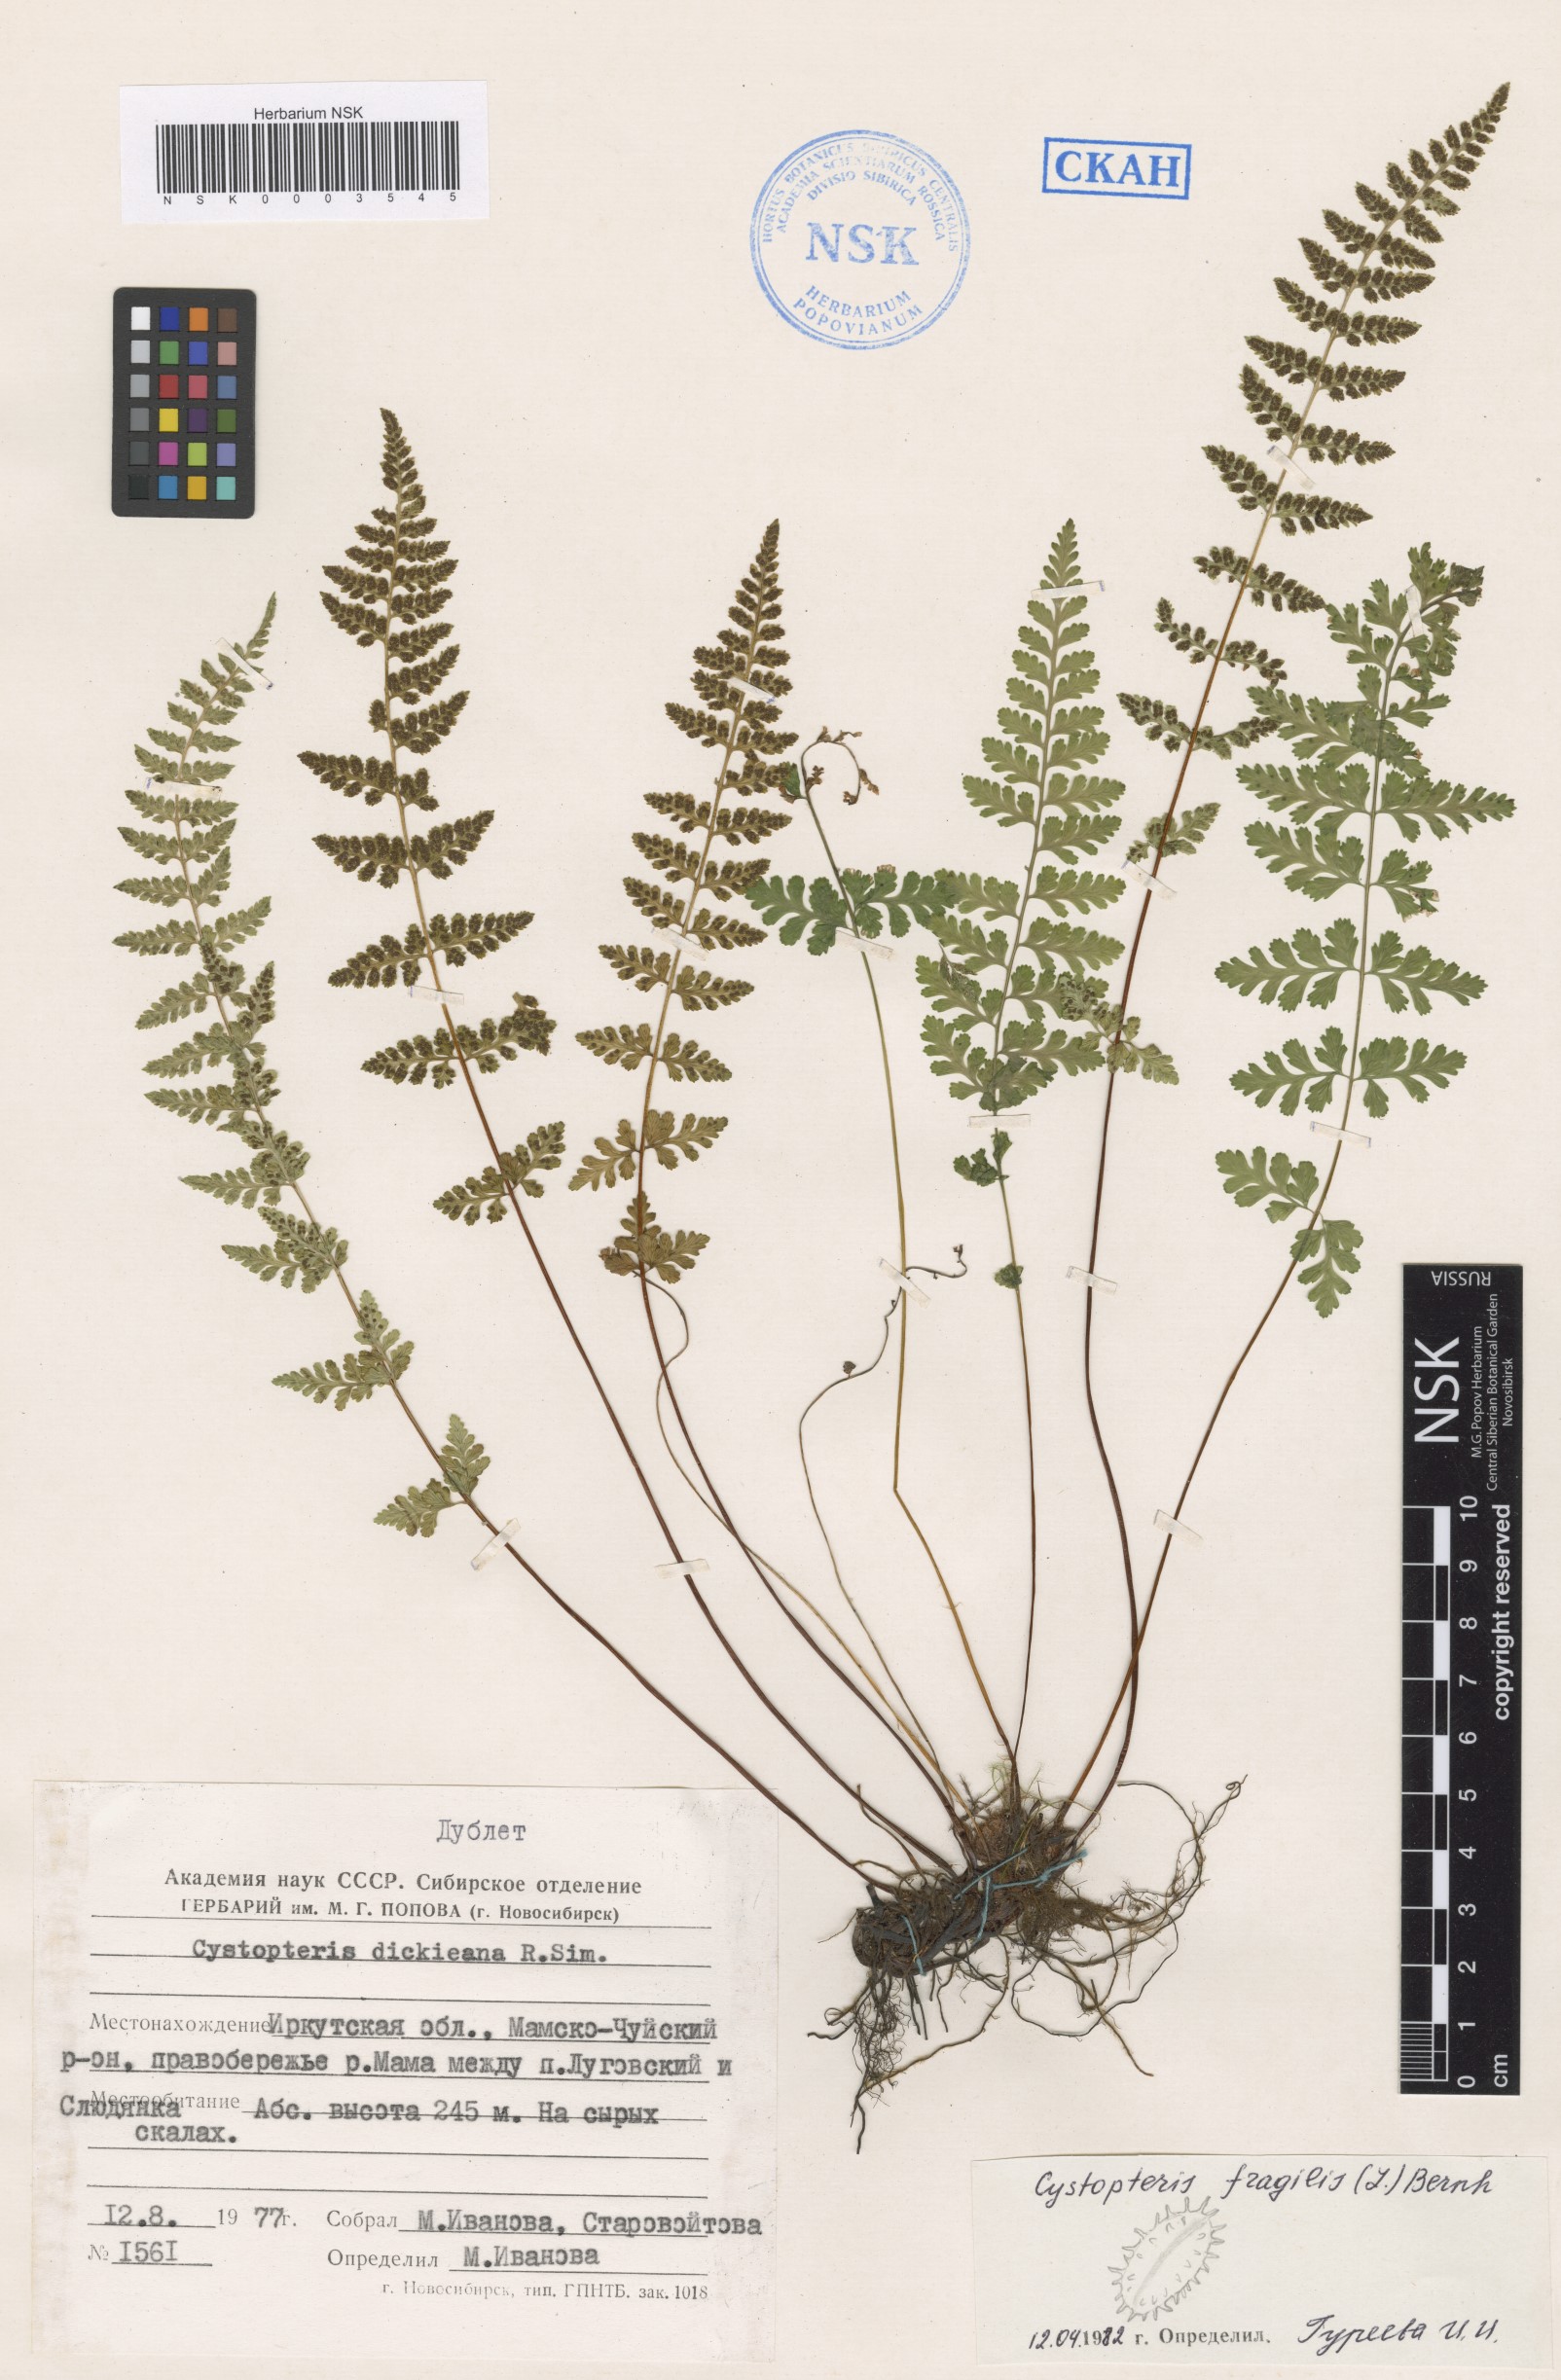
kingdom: Plantae
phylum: Tracheophyta
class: Polypodiopsida
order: Polypodiales
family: Cystopteridaceae
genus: Cystopteris
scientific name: Cystopteris fragilis
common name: Brittle bladder fern
